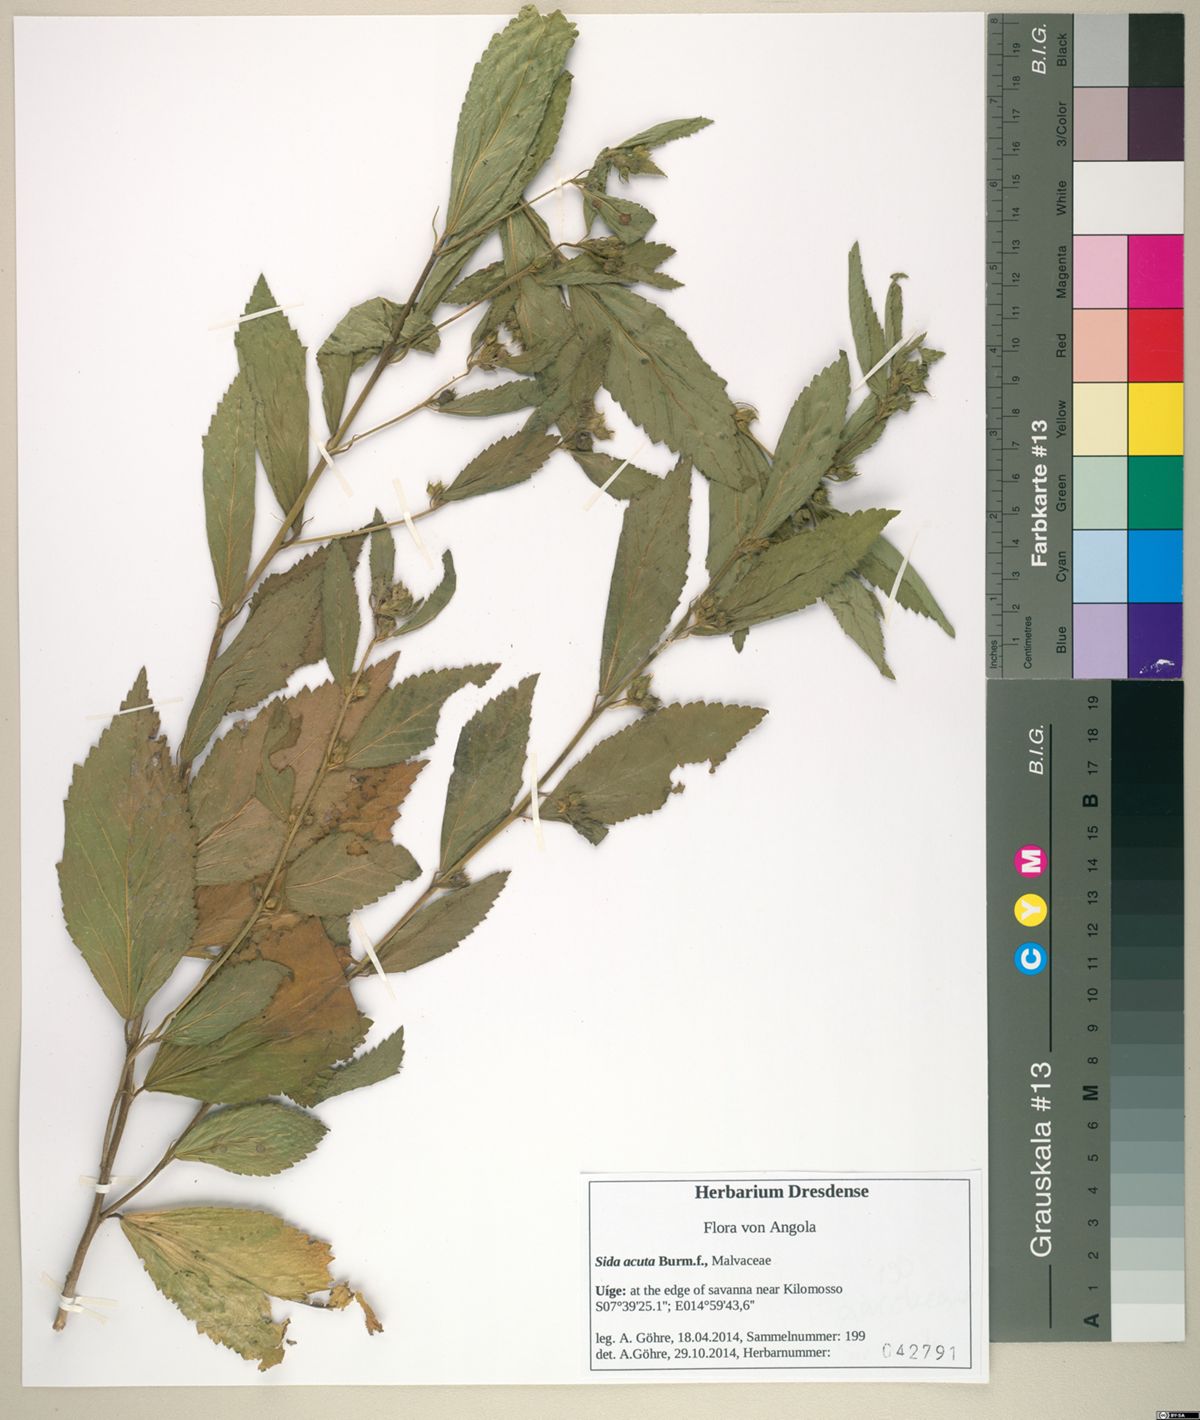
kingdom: Plantae
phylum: Tracheophyta
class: Magnoliopsida
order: Malvales
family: Malvaceae
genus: Sida
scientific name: Sida acuta
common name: Common wireweed
